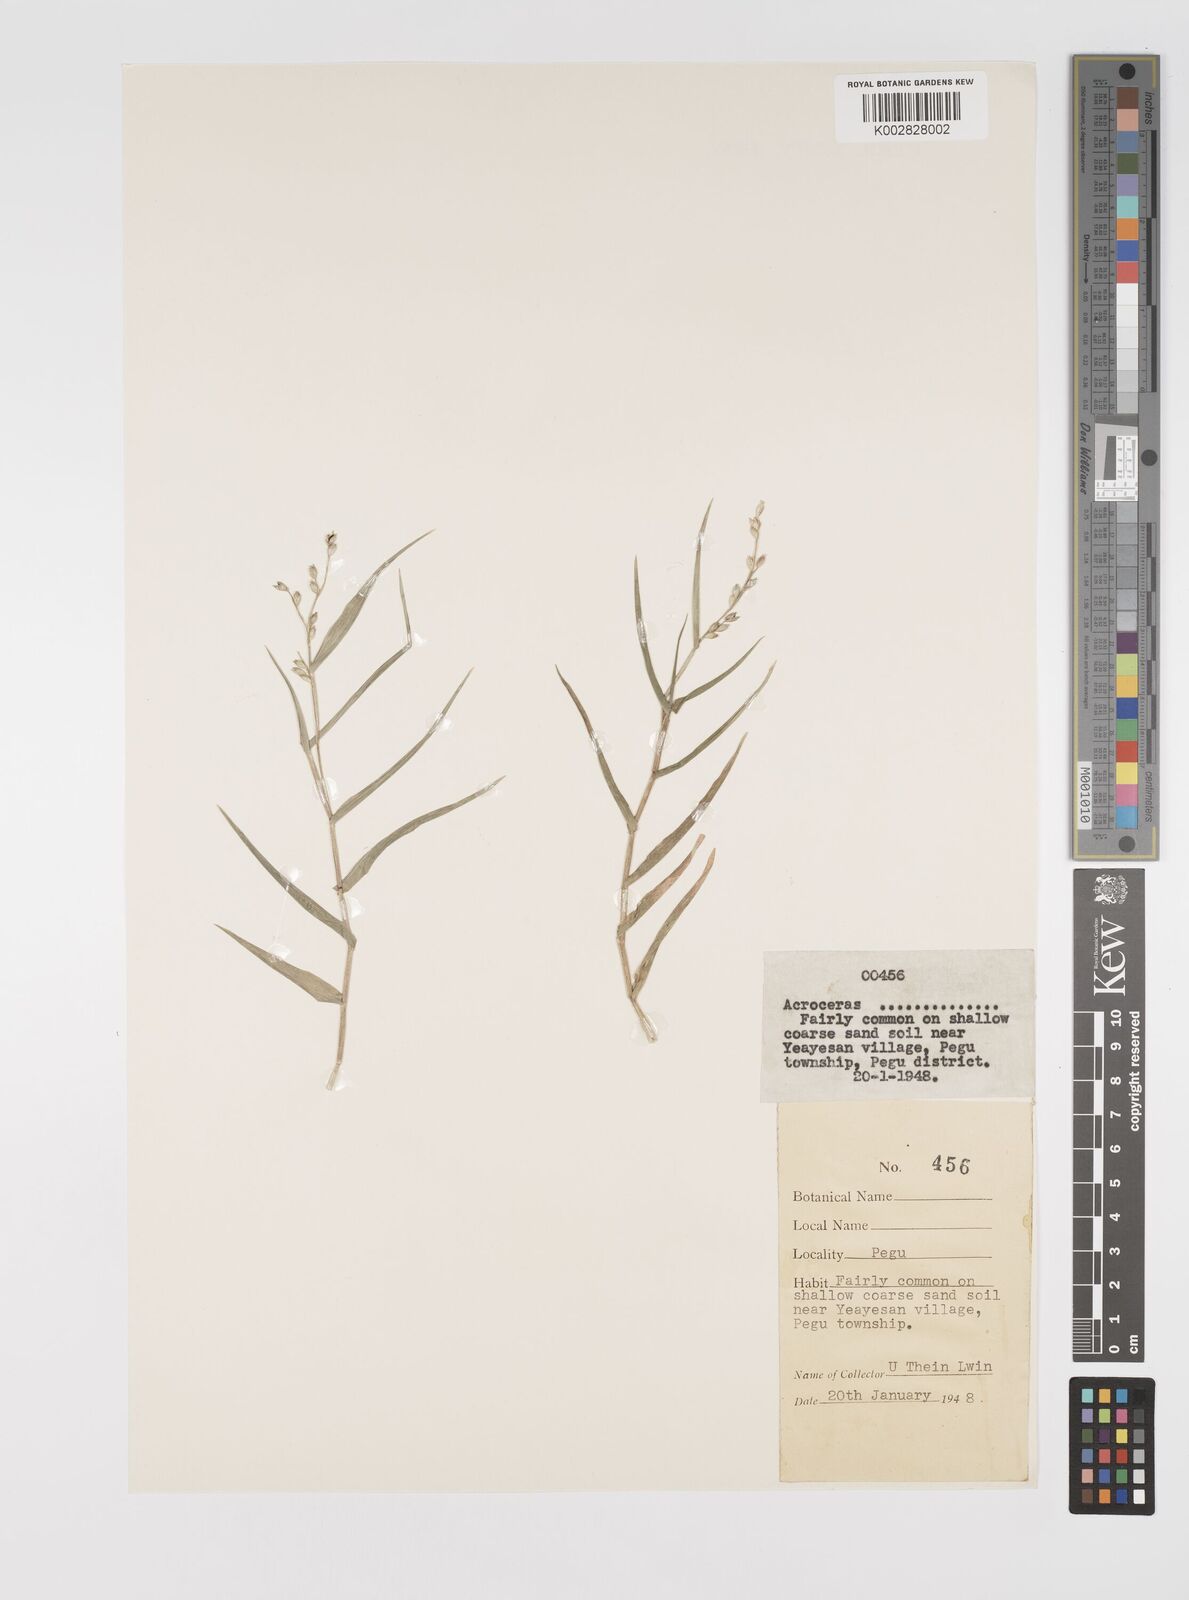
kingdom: Plantae
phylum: Tracheophyta
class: Liliopsida
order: Poales
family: Poaceae
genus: Acroceras
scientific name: Acroceras munroanum
